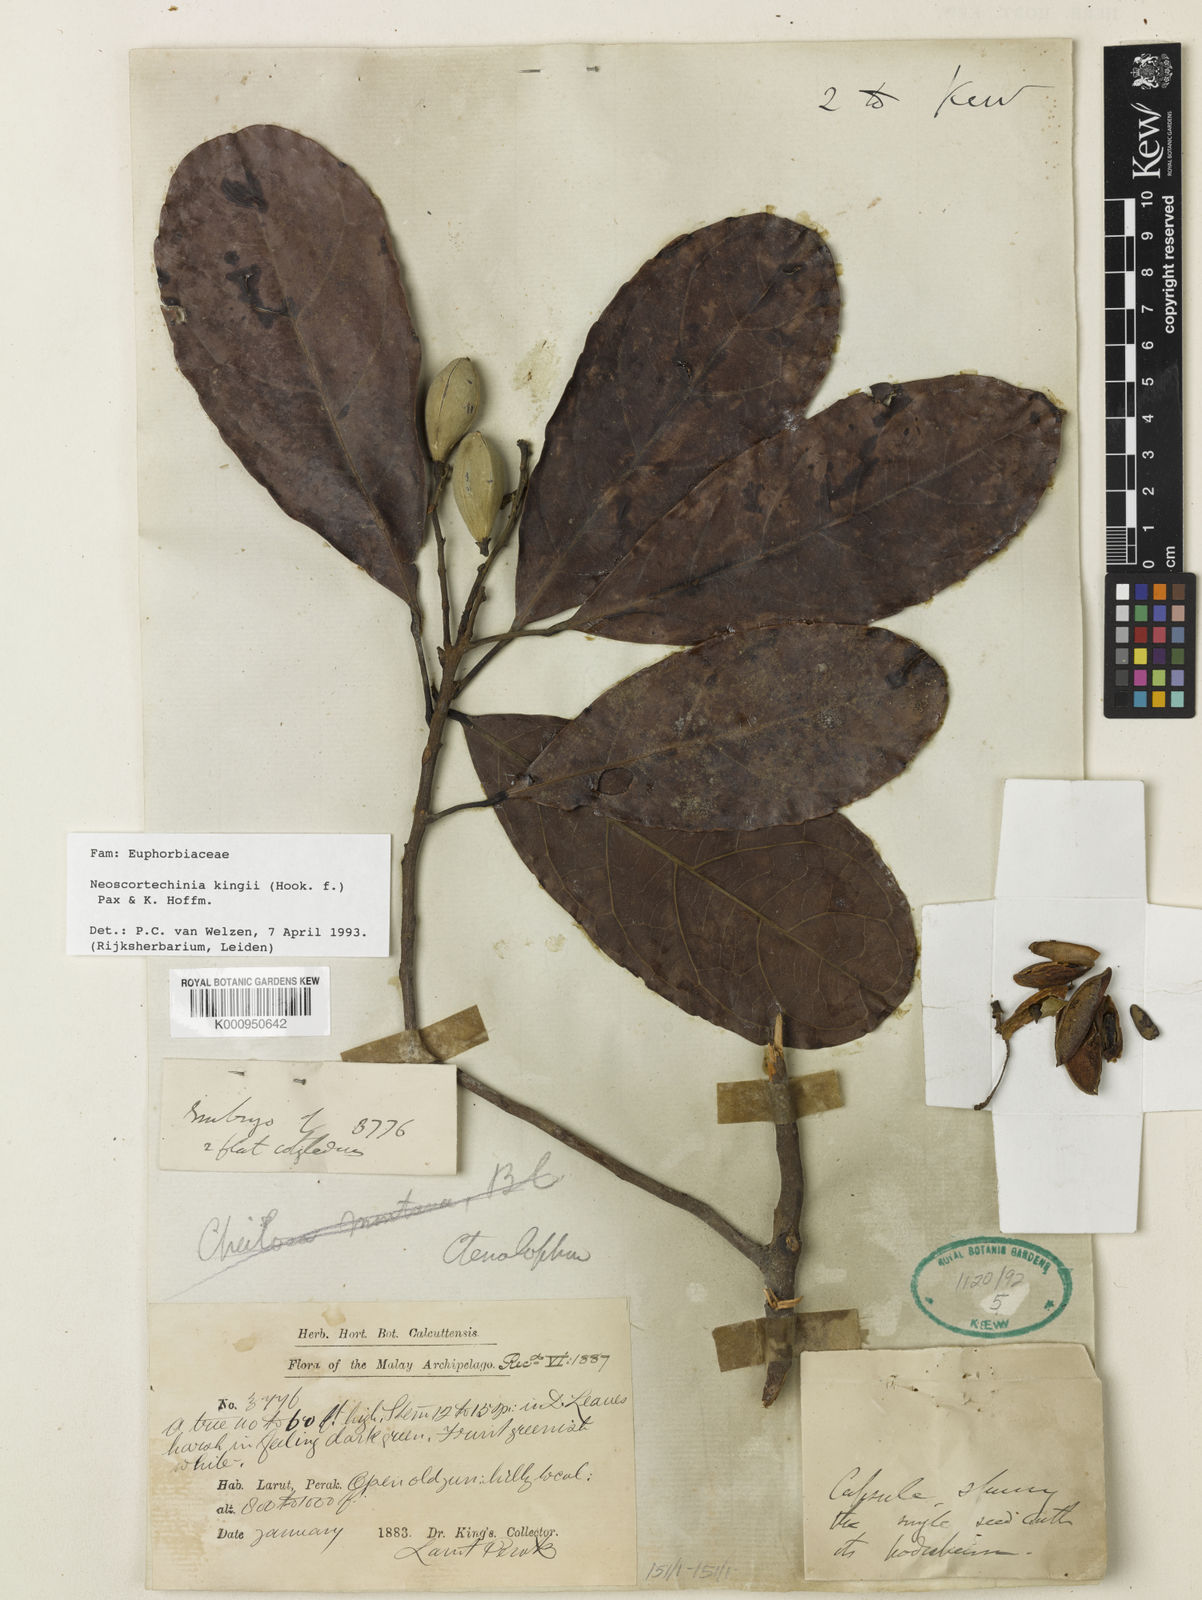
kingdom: Plantae
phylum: Tracheophyta
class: Magnoliopsida
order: Malpighiales
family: Euphorbiaceae
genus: Neoscortechinia
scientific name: Neoscortechinia kingii
